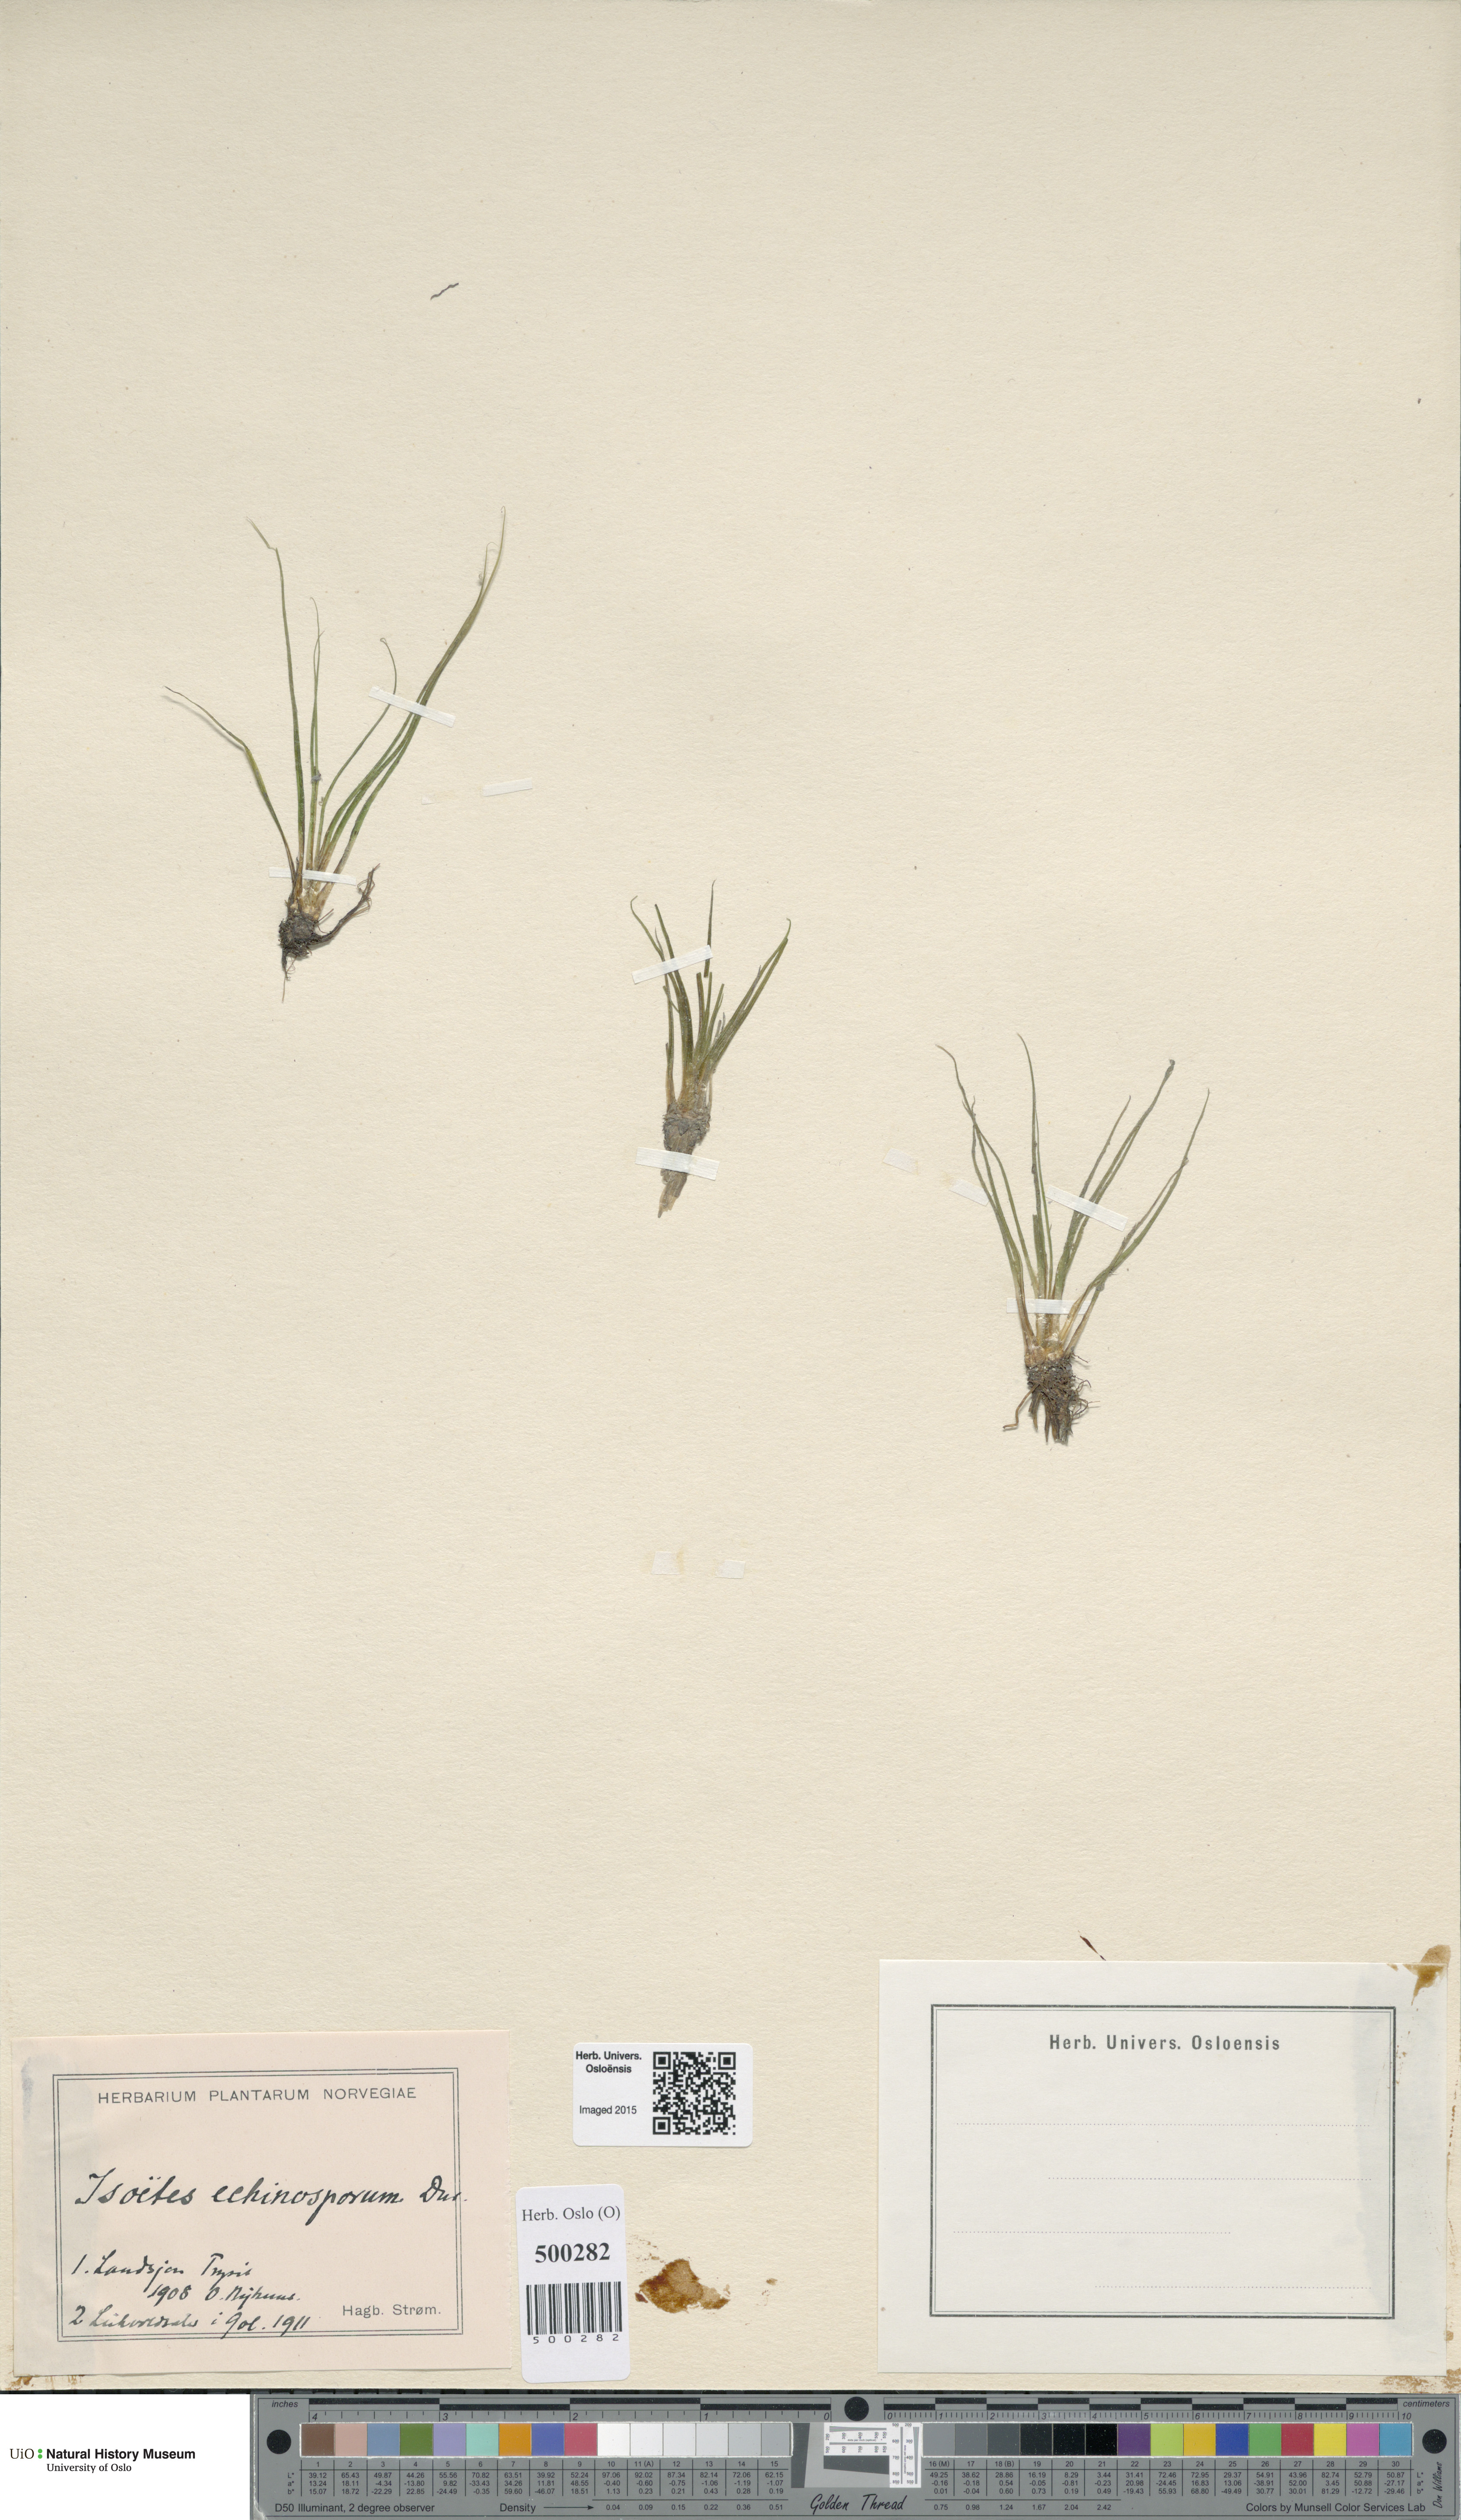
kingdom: Plantae
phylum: Tracheophyta
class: Lycopodiopsida
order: Isoetales
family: Isoetaceae
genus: Isoetes
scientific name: Isoetes echinospora
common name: Spring quillwort
